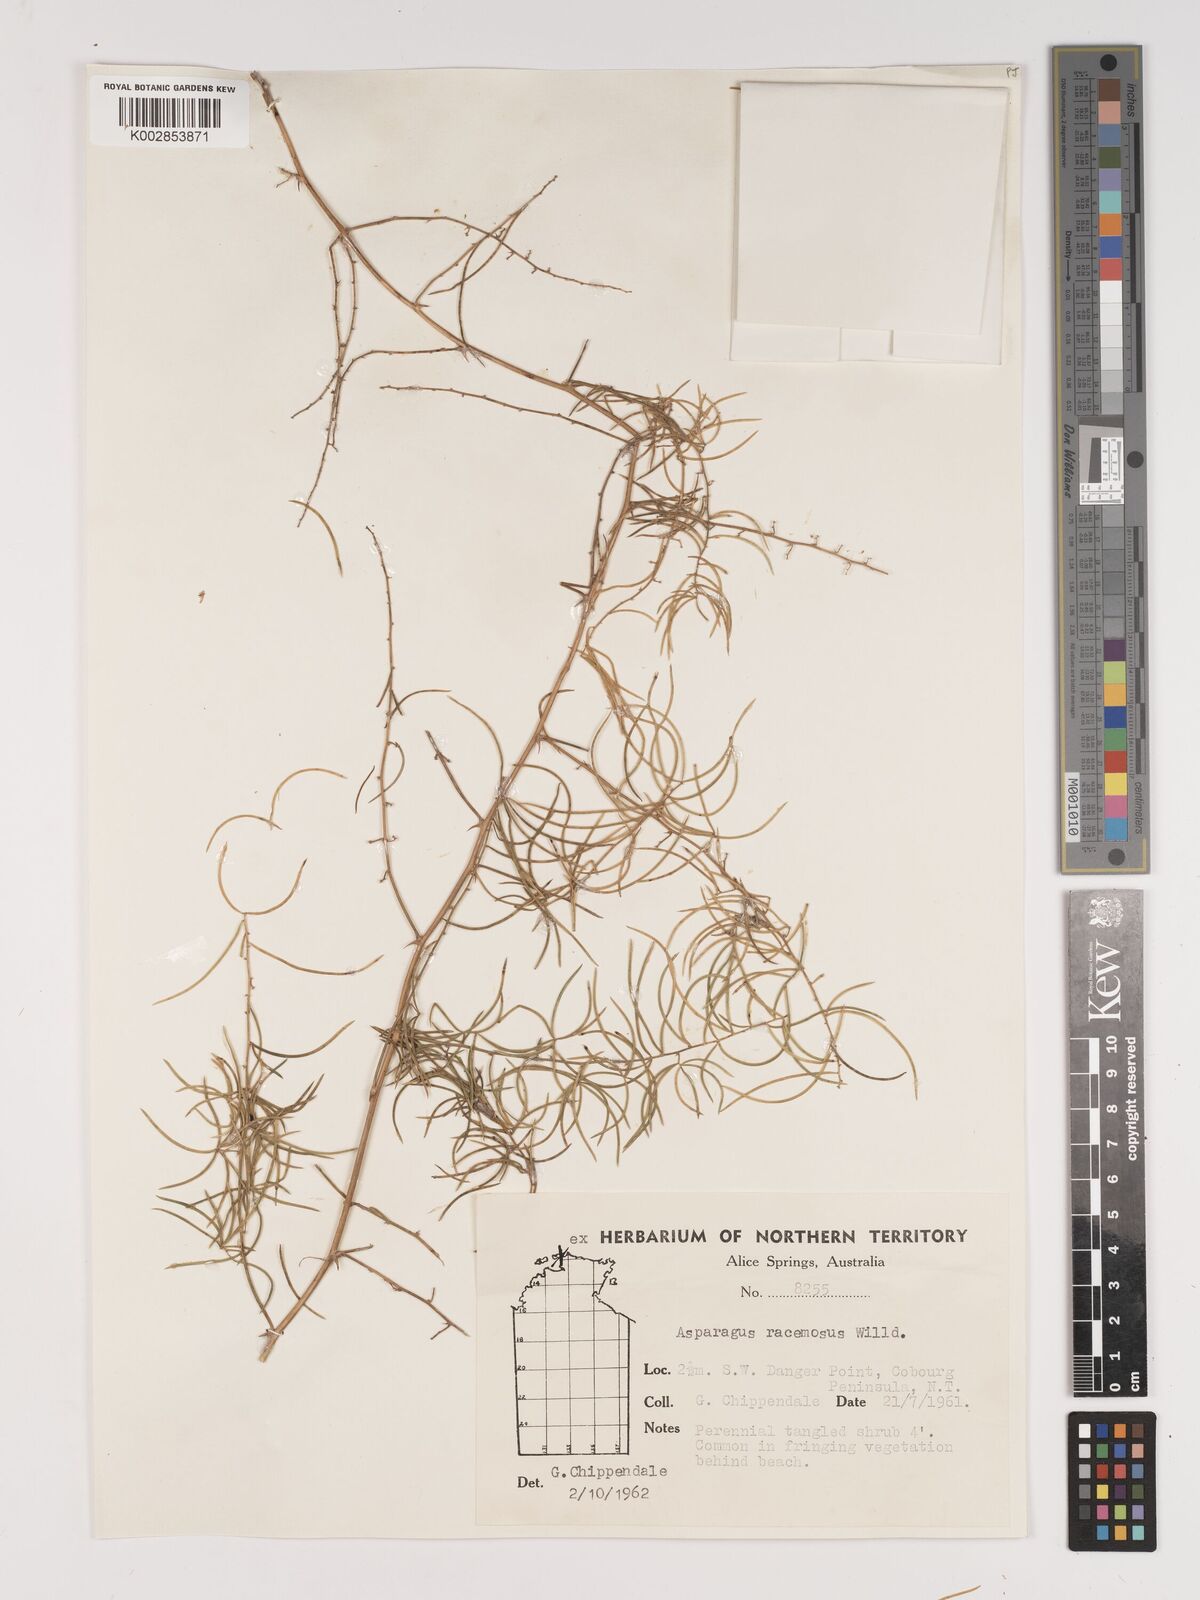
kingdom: Plantae
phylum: Tracheophyta
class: Liliopsida
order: Asparagales
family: Asparagaceae
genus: Asparagus
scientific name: Asparagus racemosus
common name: Asparagus-fern
